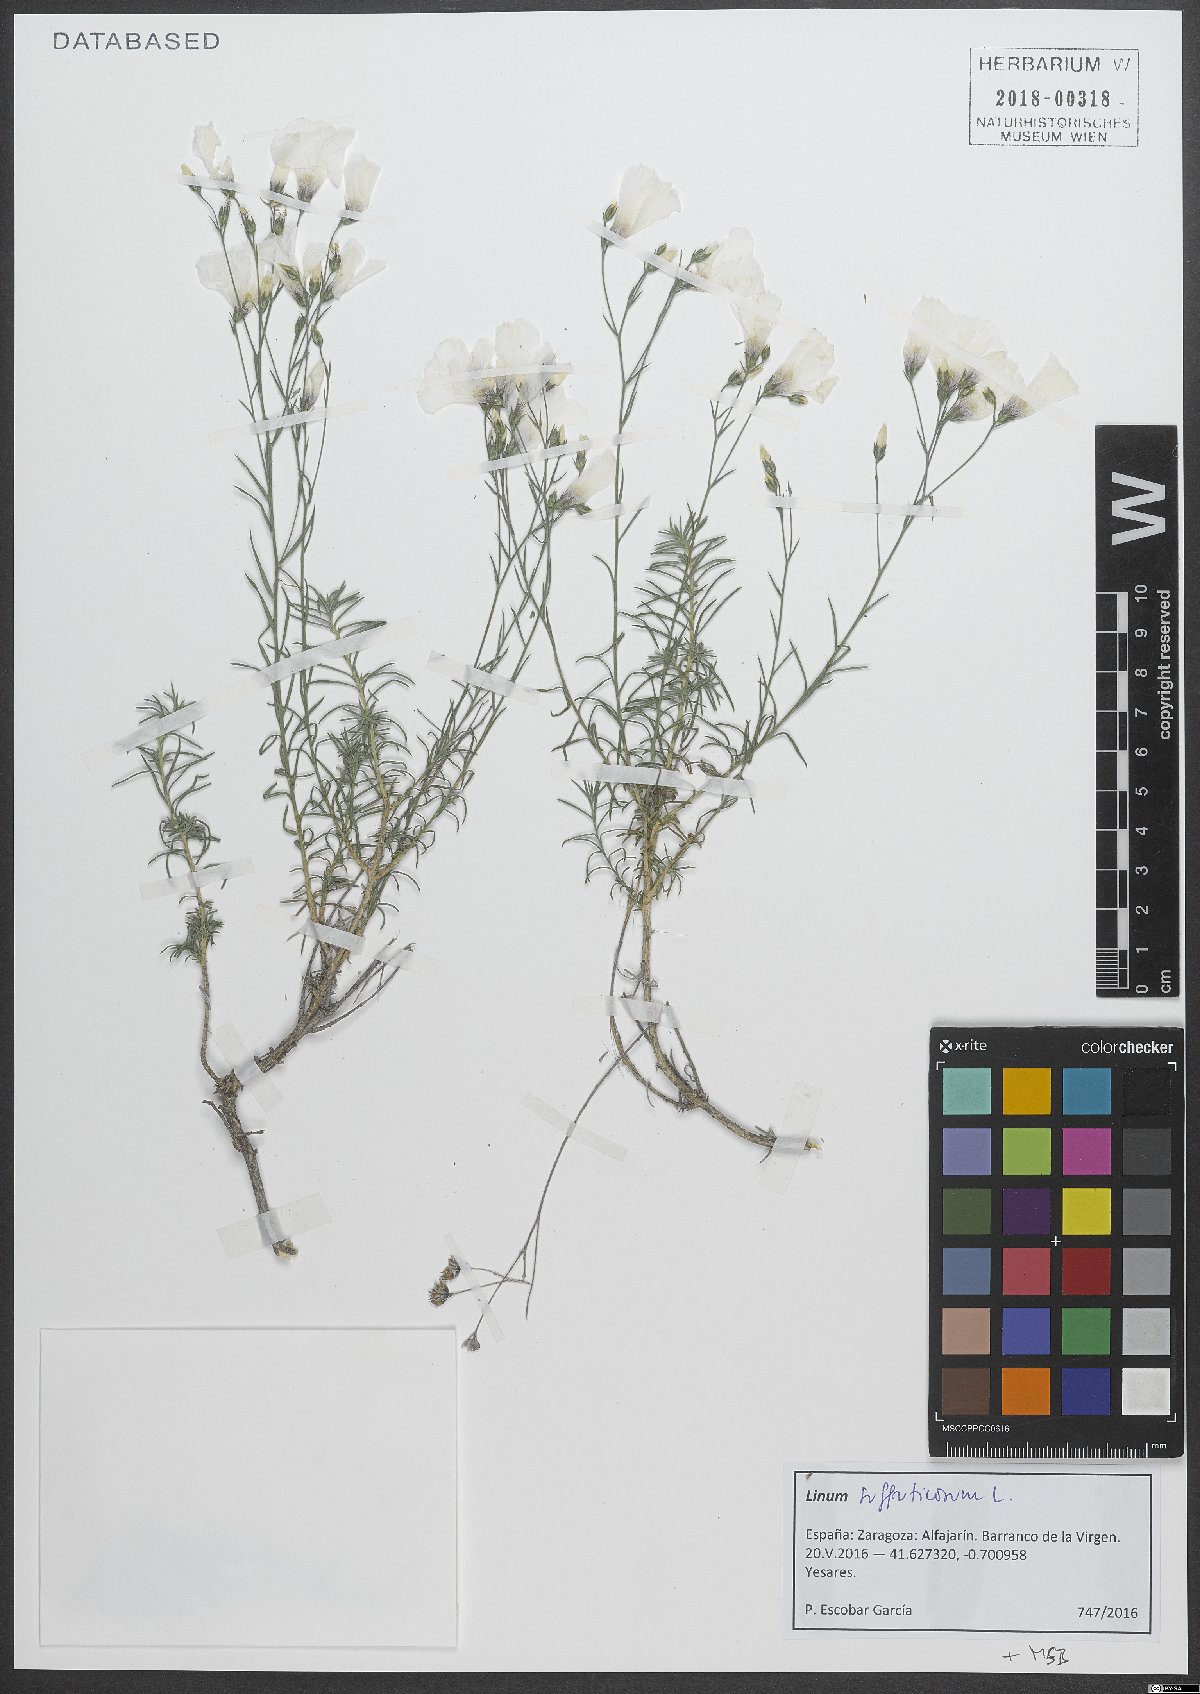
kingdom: Plantae
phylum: Tracheophyta
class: Magnoliopsida
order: Malpighiales
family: Linaceae
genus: Linum
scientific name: Linum suffruticosum
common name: White flax
